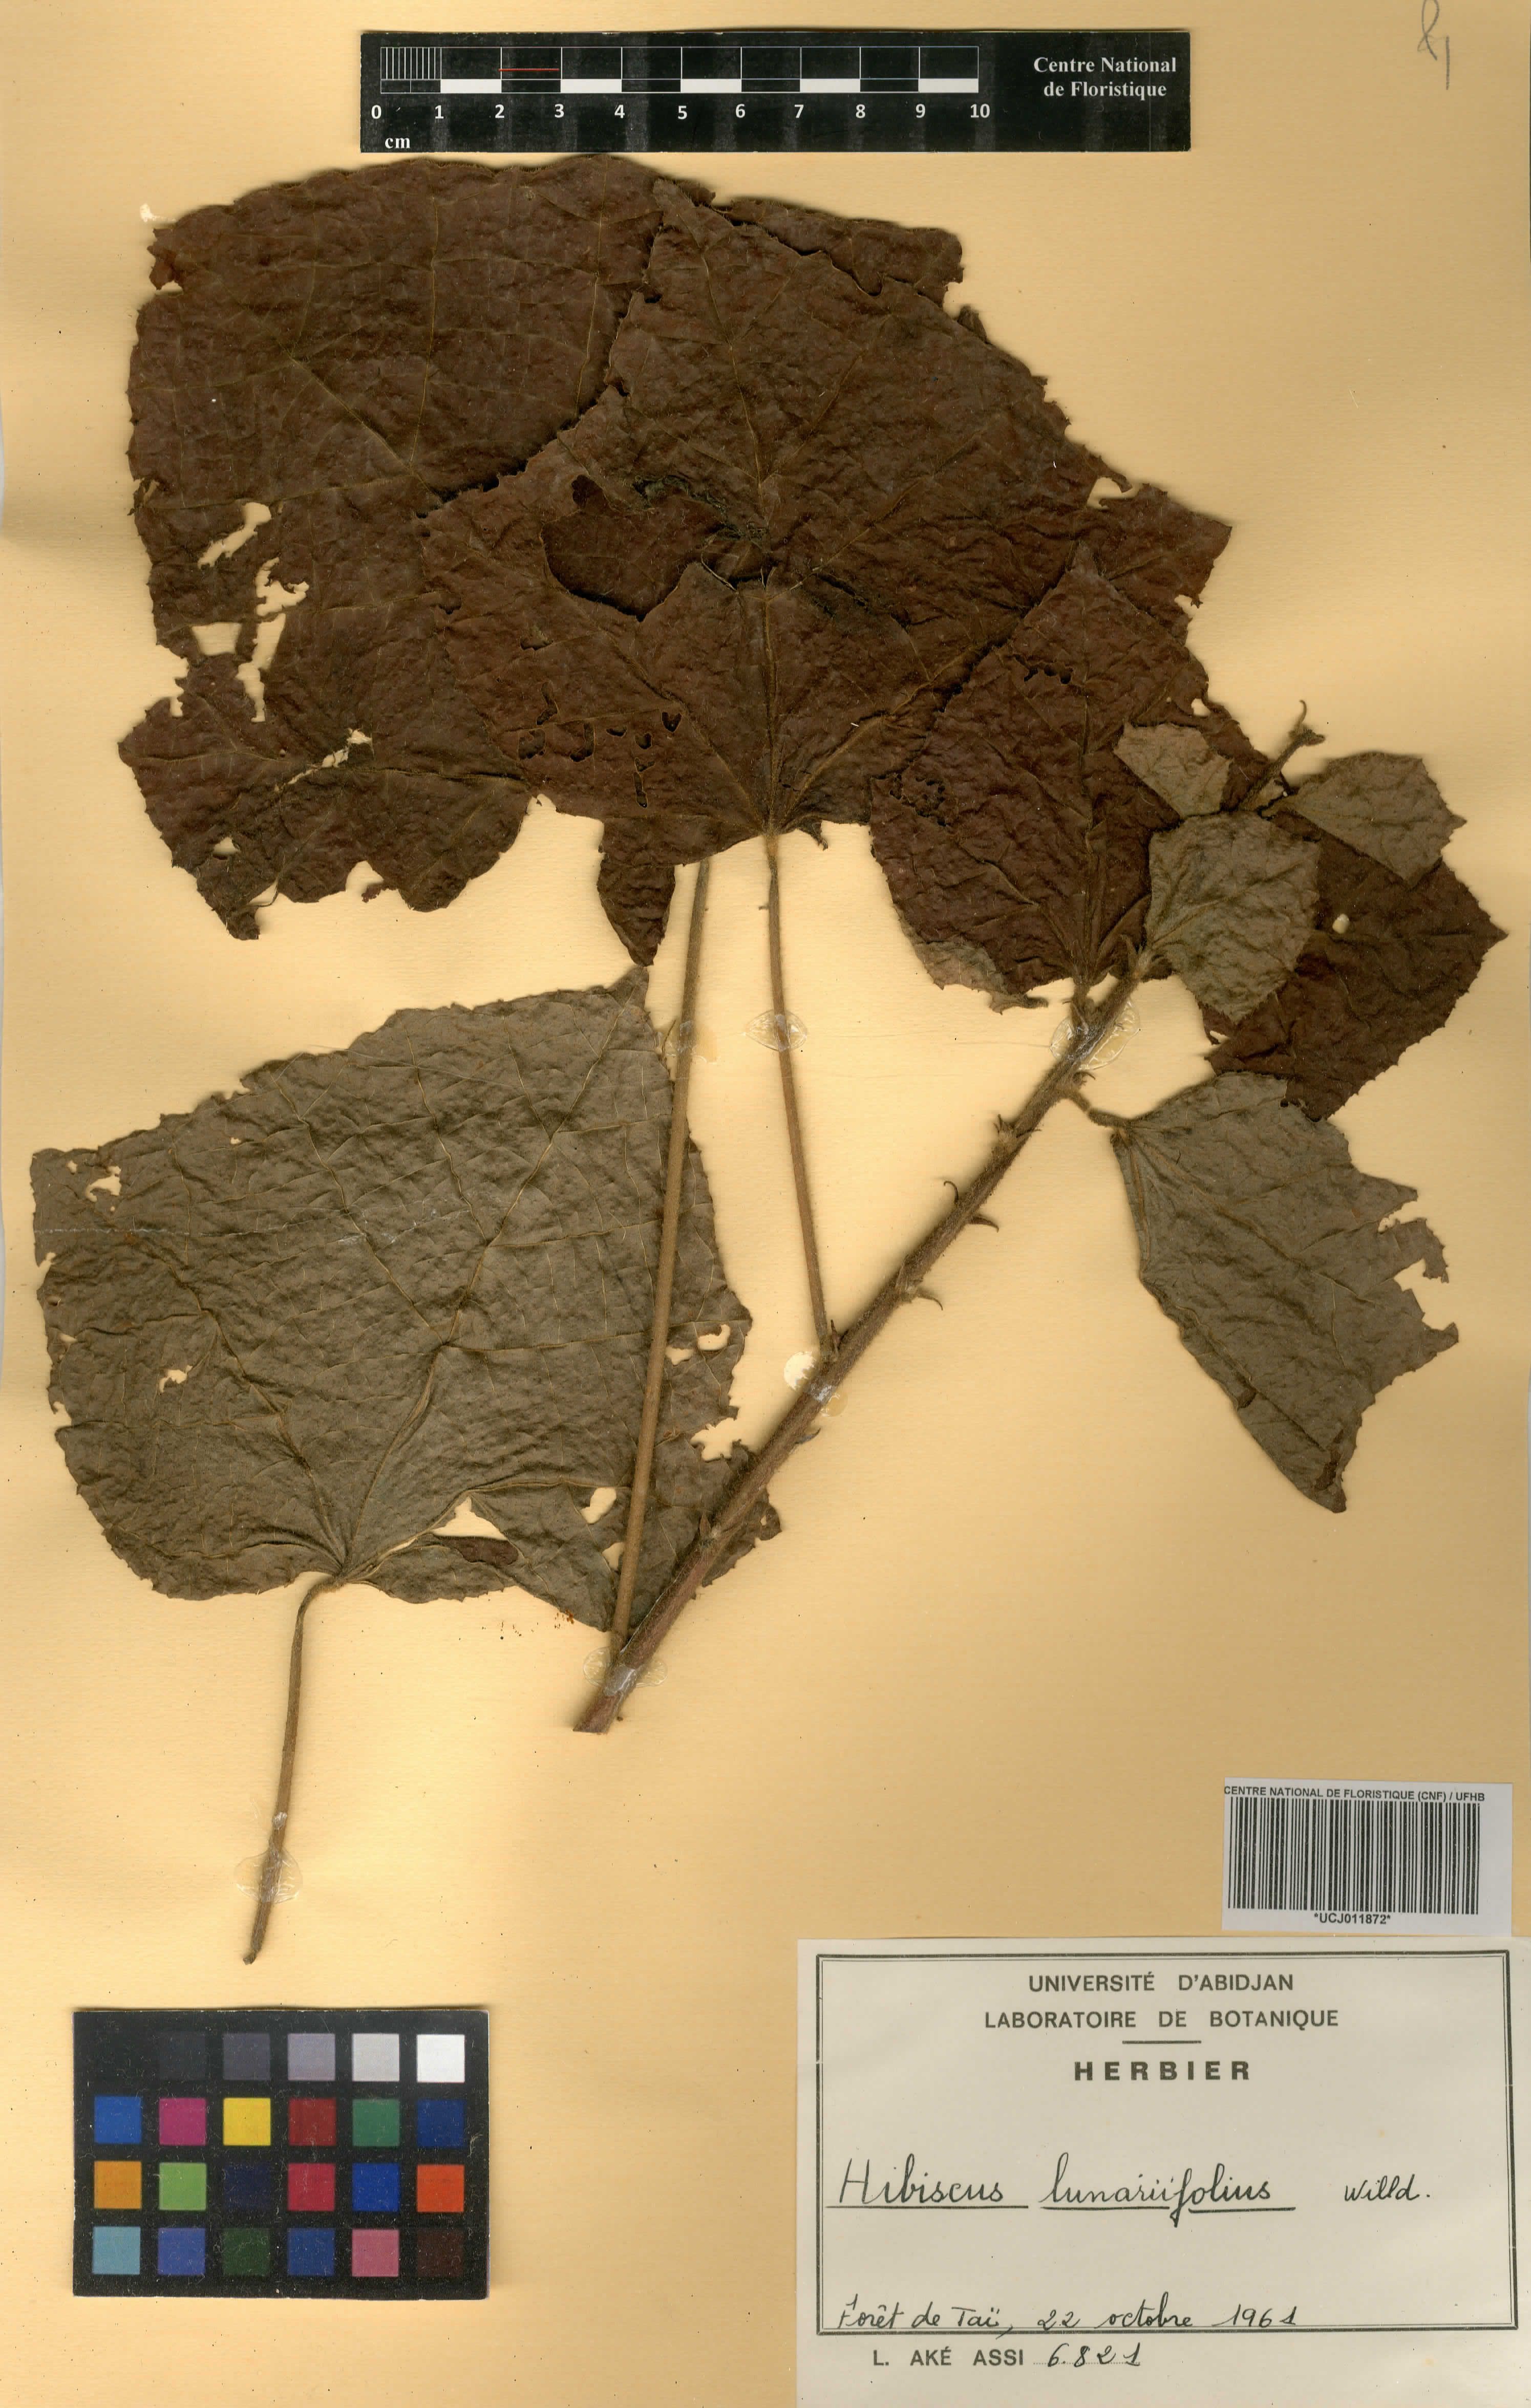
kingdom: Plantae
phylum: Tracheophyta
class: Magnoliopsida
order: Malvales
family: Malvaceae
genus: Hibiscus
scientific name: Hibiscus lunariifolius
